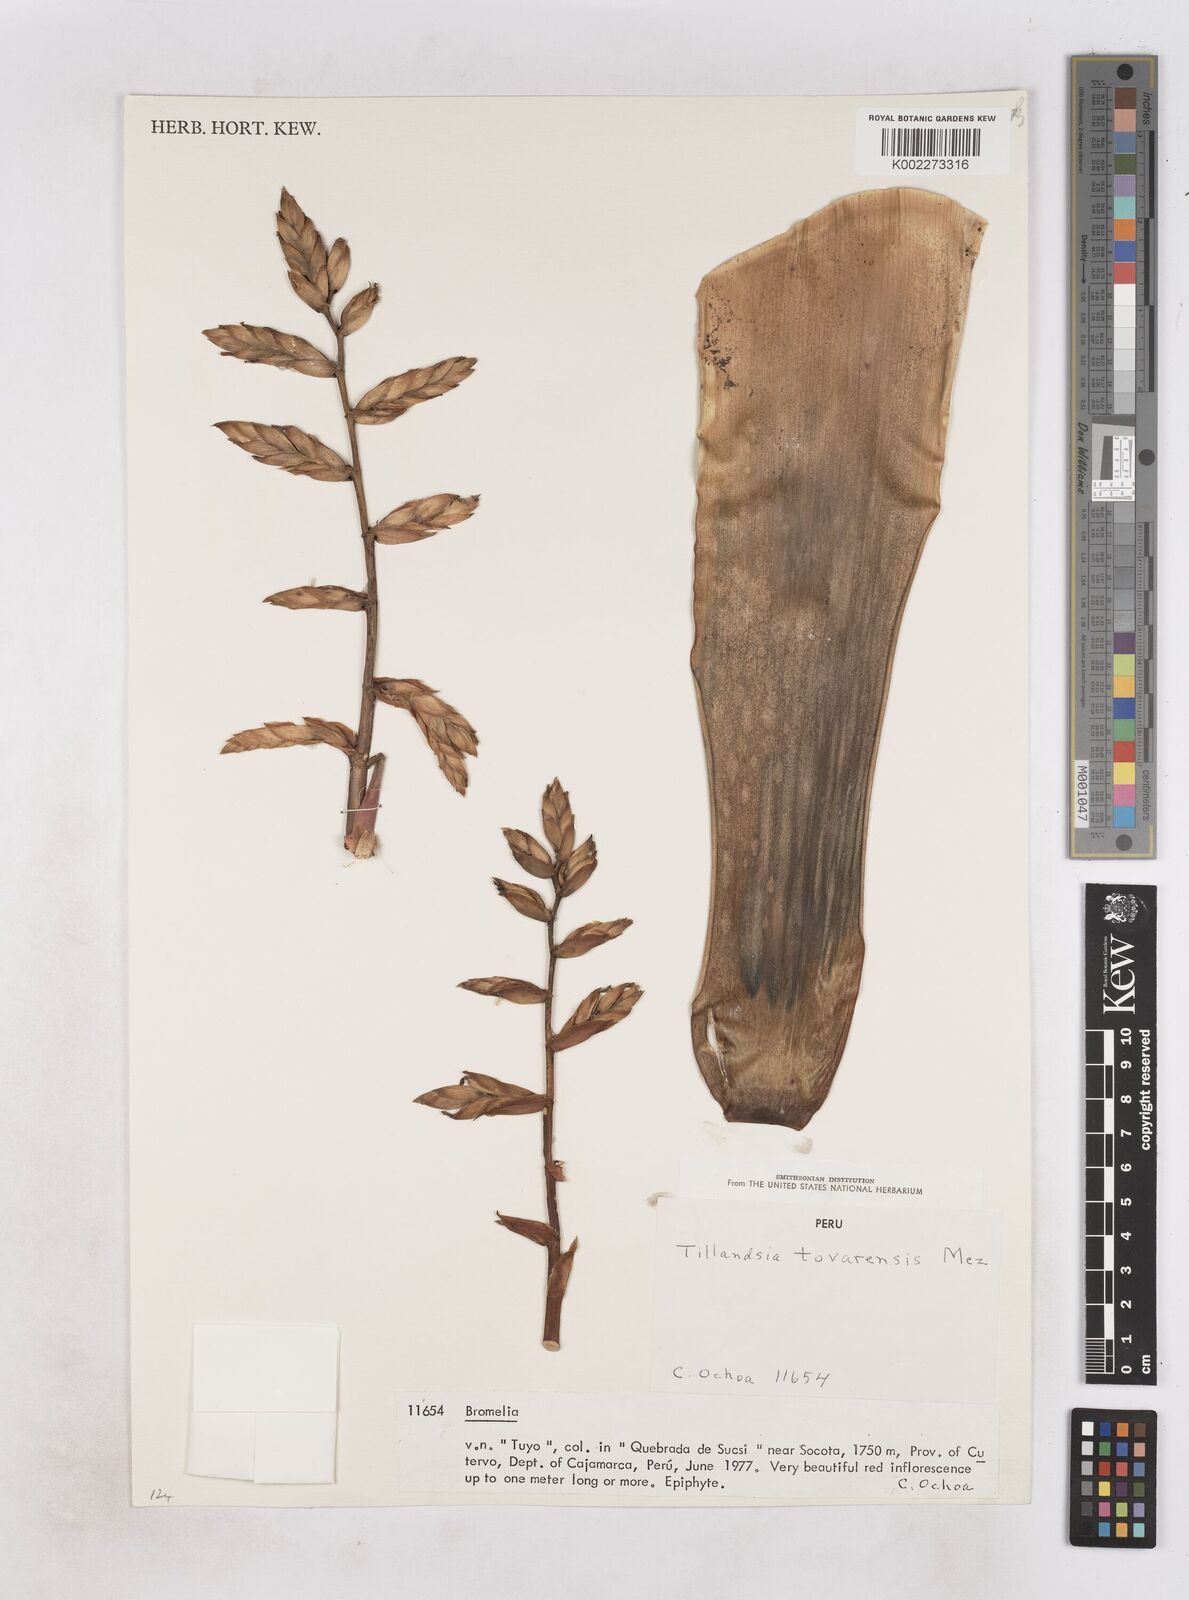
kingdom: Plantae
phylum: Tracheophyta
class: Liliopsida
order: Poales
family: Bromeliaceae
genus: Tillandsia
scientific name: Tillandsia tovarensis
